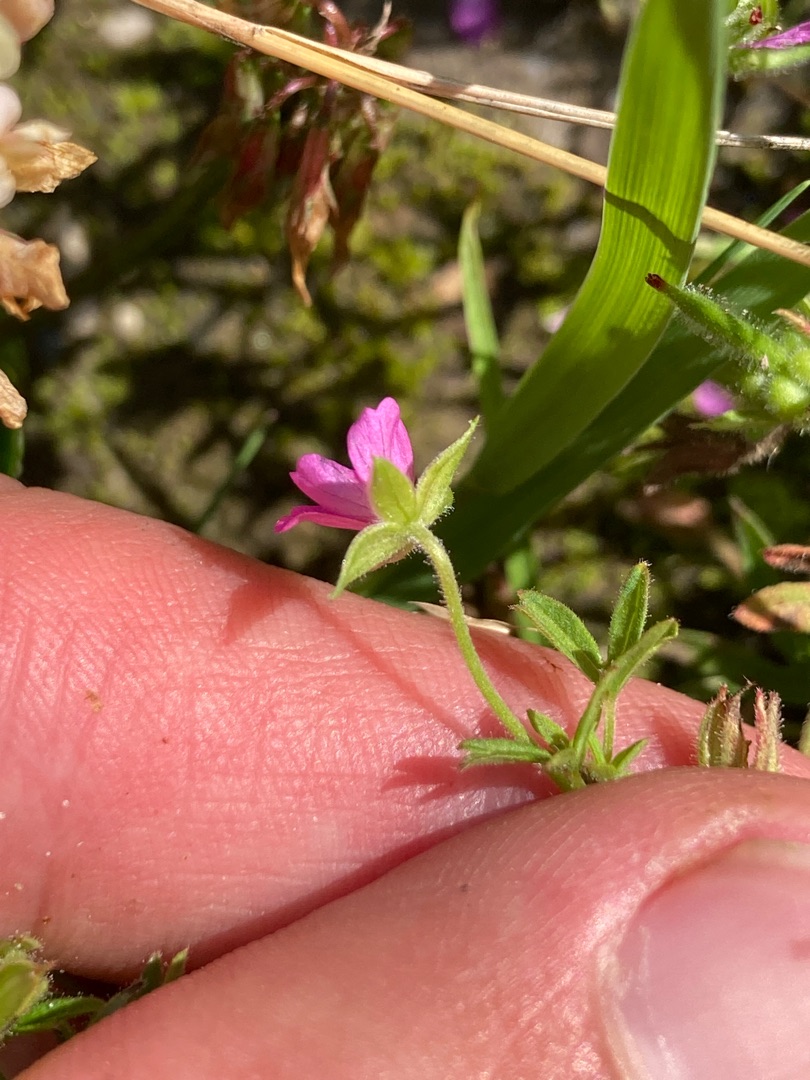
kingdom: Plantae
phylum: Tracheophyta
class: Magnoliopsida
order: Geraniales
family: Geraniaceae
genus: Geranium
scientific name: Geranium dissectum
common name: Kløftet storkenæb
